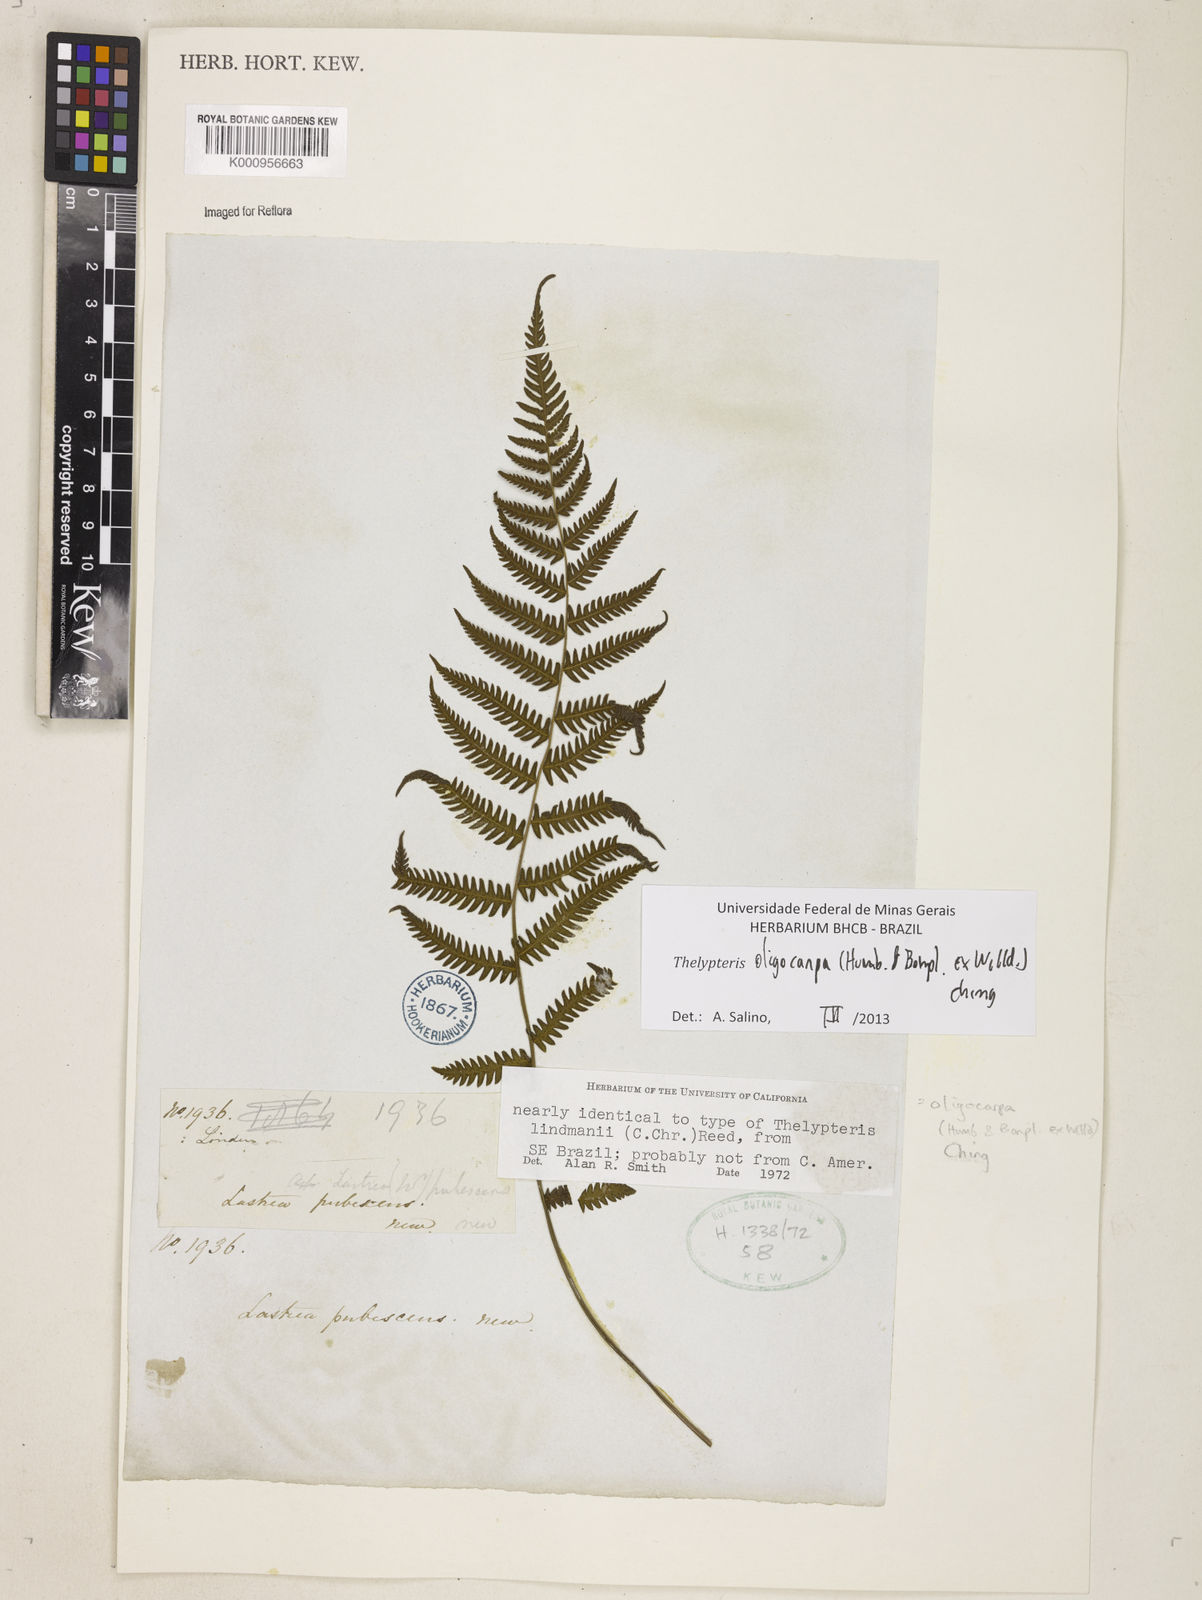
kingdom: Plantae
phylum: Tracheophyta
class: Polypodiopsida
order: Polypodiales
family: Thelypteridaceae
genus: Amauropelta
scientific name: Amauropelta oligocarpa
